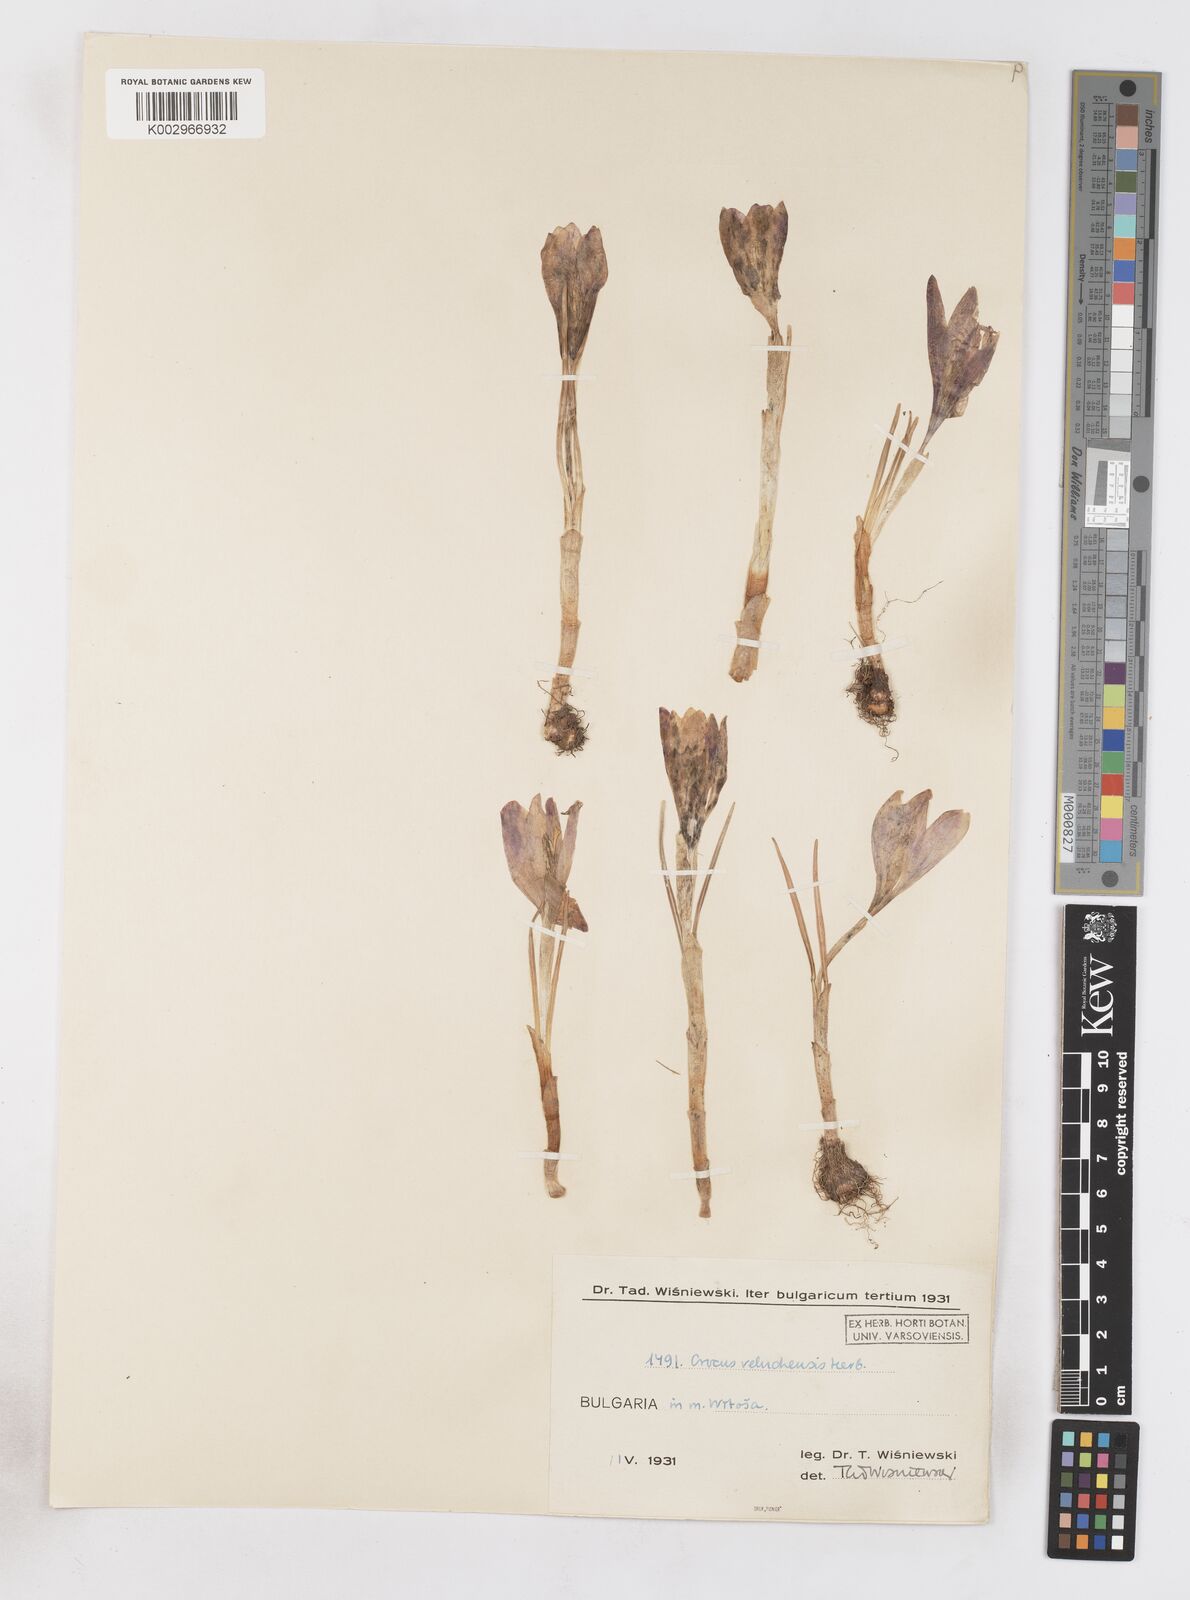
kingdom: Plantae
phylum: Tracheophyta
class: Liliopsida
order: Asparagales
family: Iridaceae
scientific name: Iridaceae
